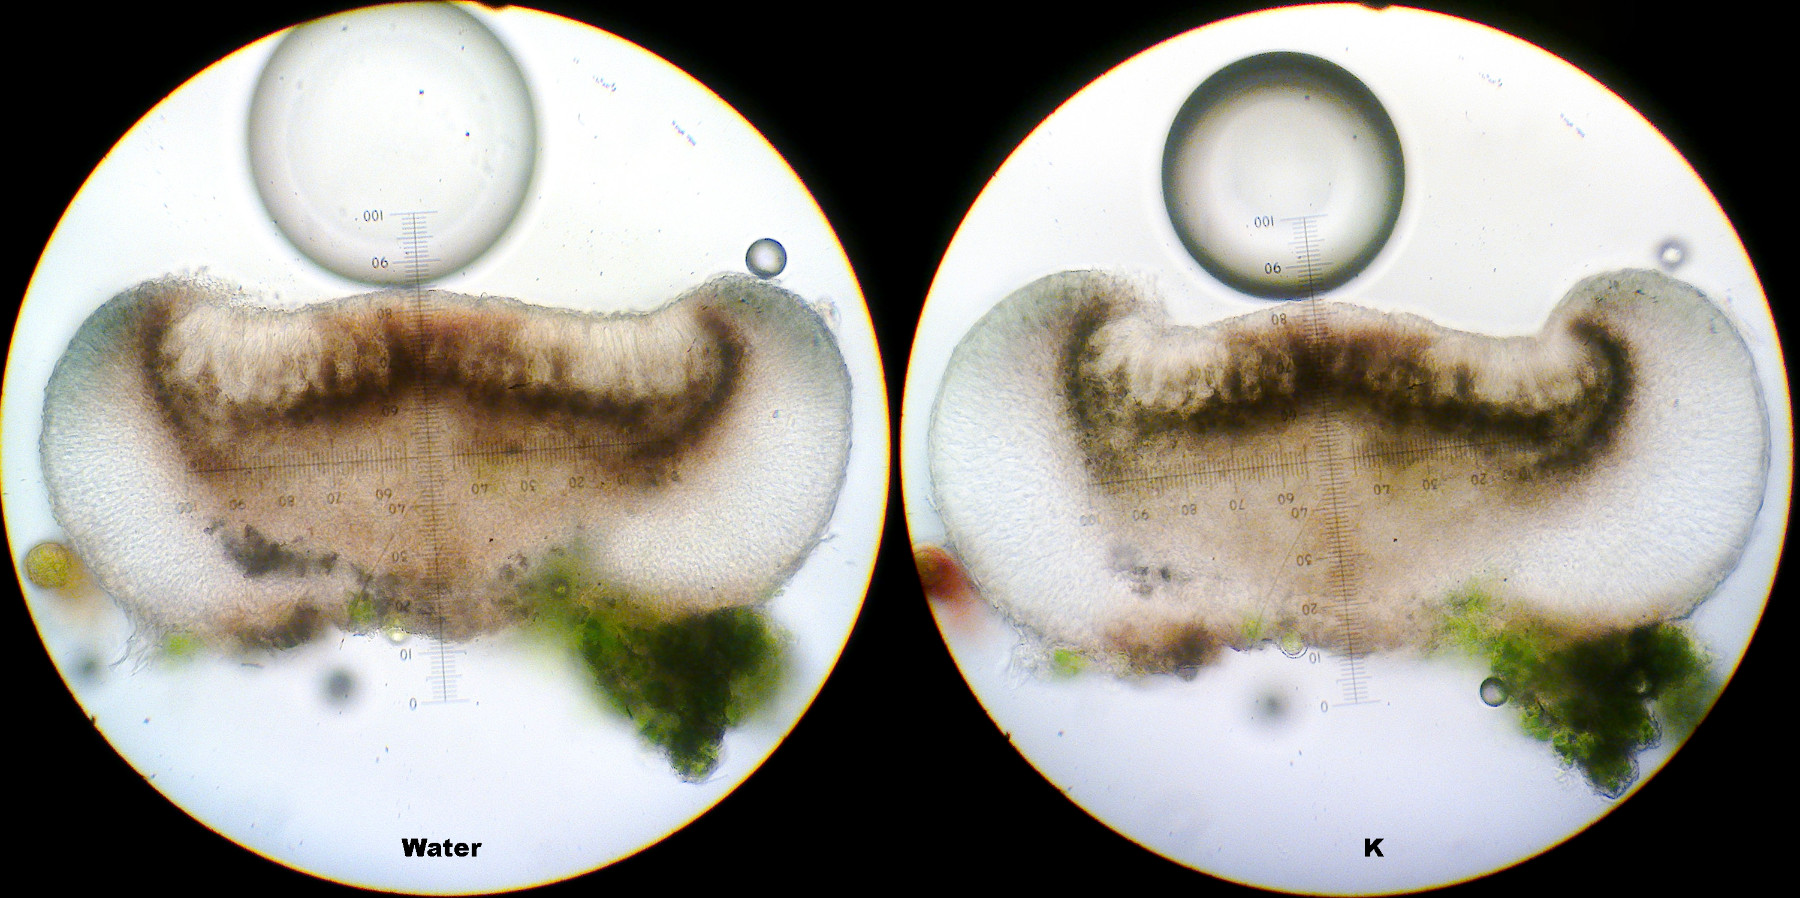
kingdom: Fungi
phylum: Ascomycota
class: Lecanoromycetes
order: Lecanorales
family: Ramalinaceae
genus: Bacidina
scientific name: Bacidina sulphurella
